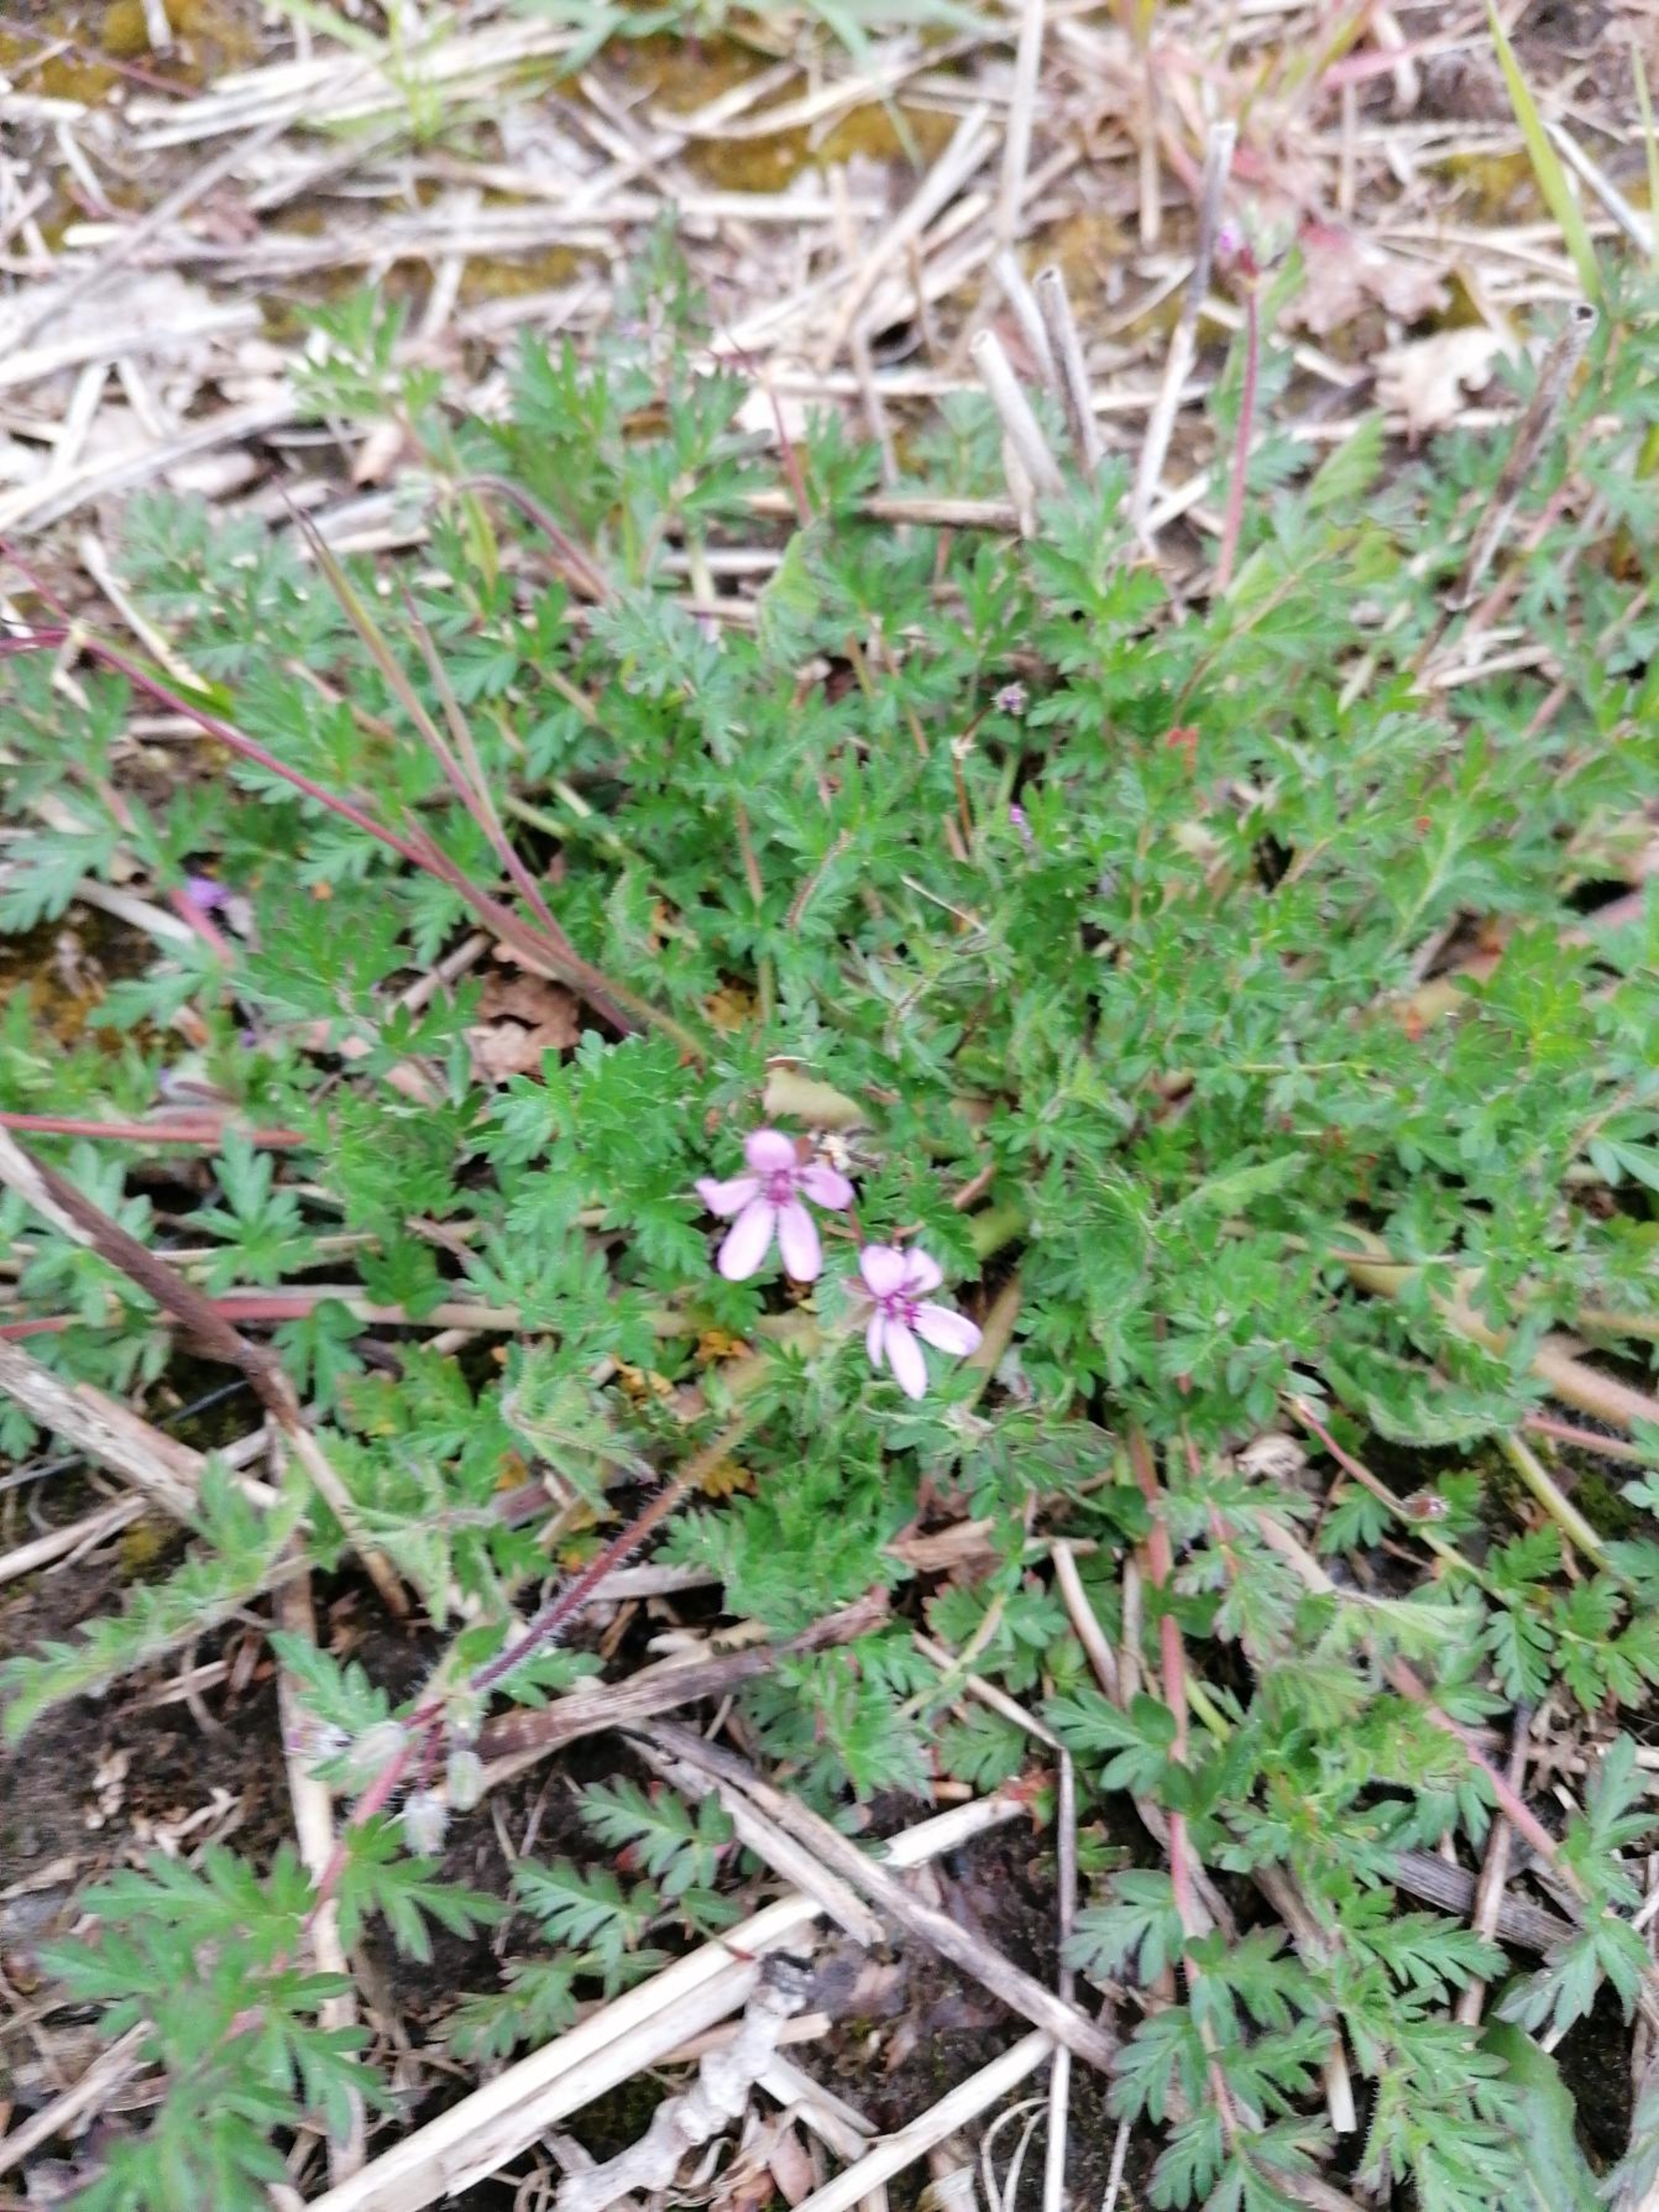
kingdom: Plantae
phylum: Tracheophyta
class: Magnoliopsida
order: Geraniales
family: Geraniaceae
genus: Erodium
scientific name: Erodium cicutarium
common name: Hejrenæb
